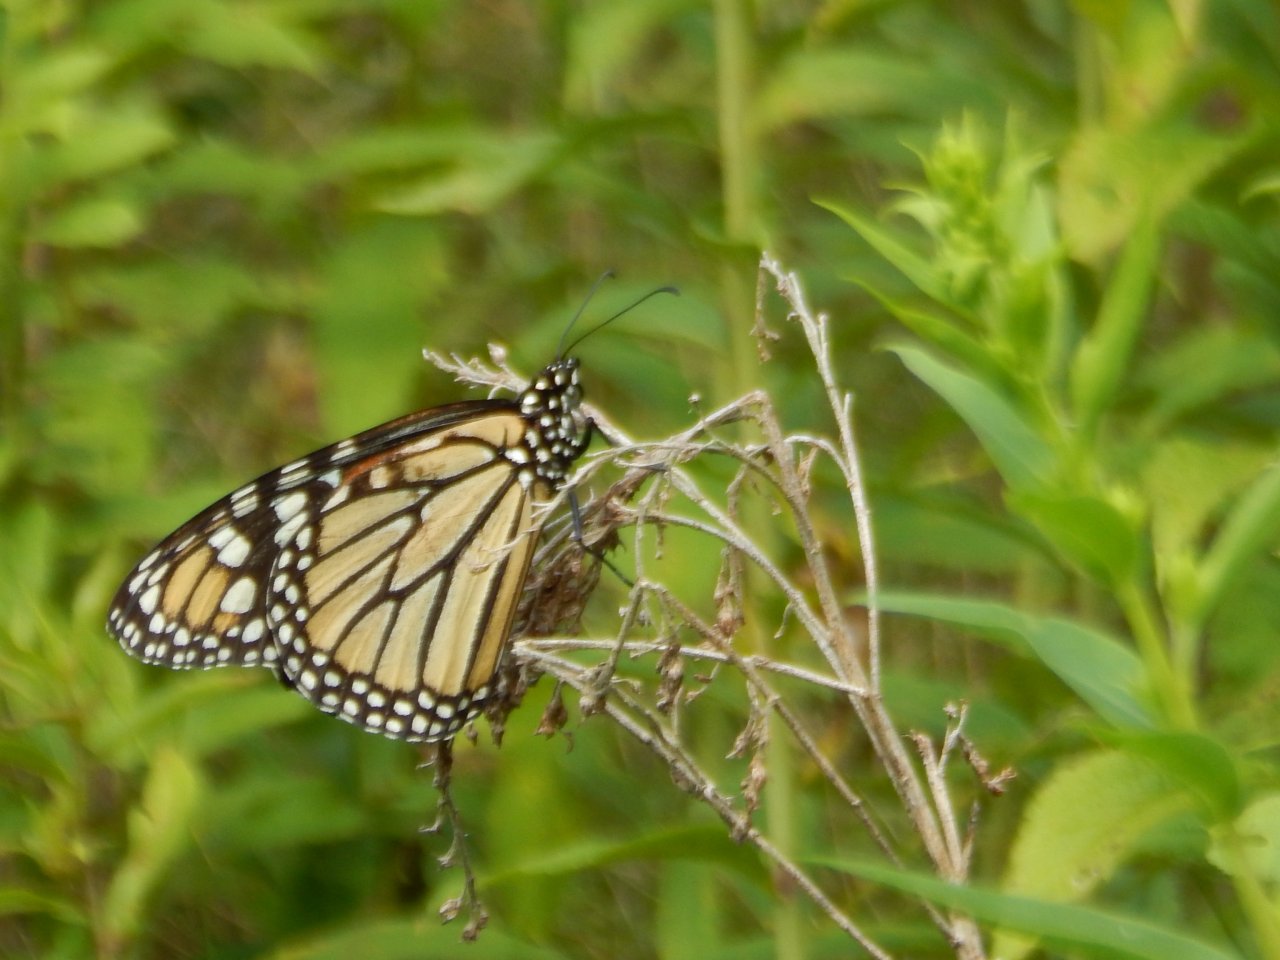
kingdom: Animalia
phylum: Arthropoda
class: Insecta
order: Lepidoptera
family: Nymphalidae
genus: Danaus
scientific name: Danaus plexippus
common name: Monarch
